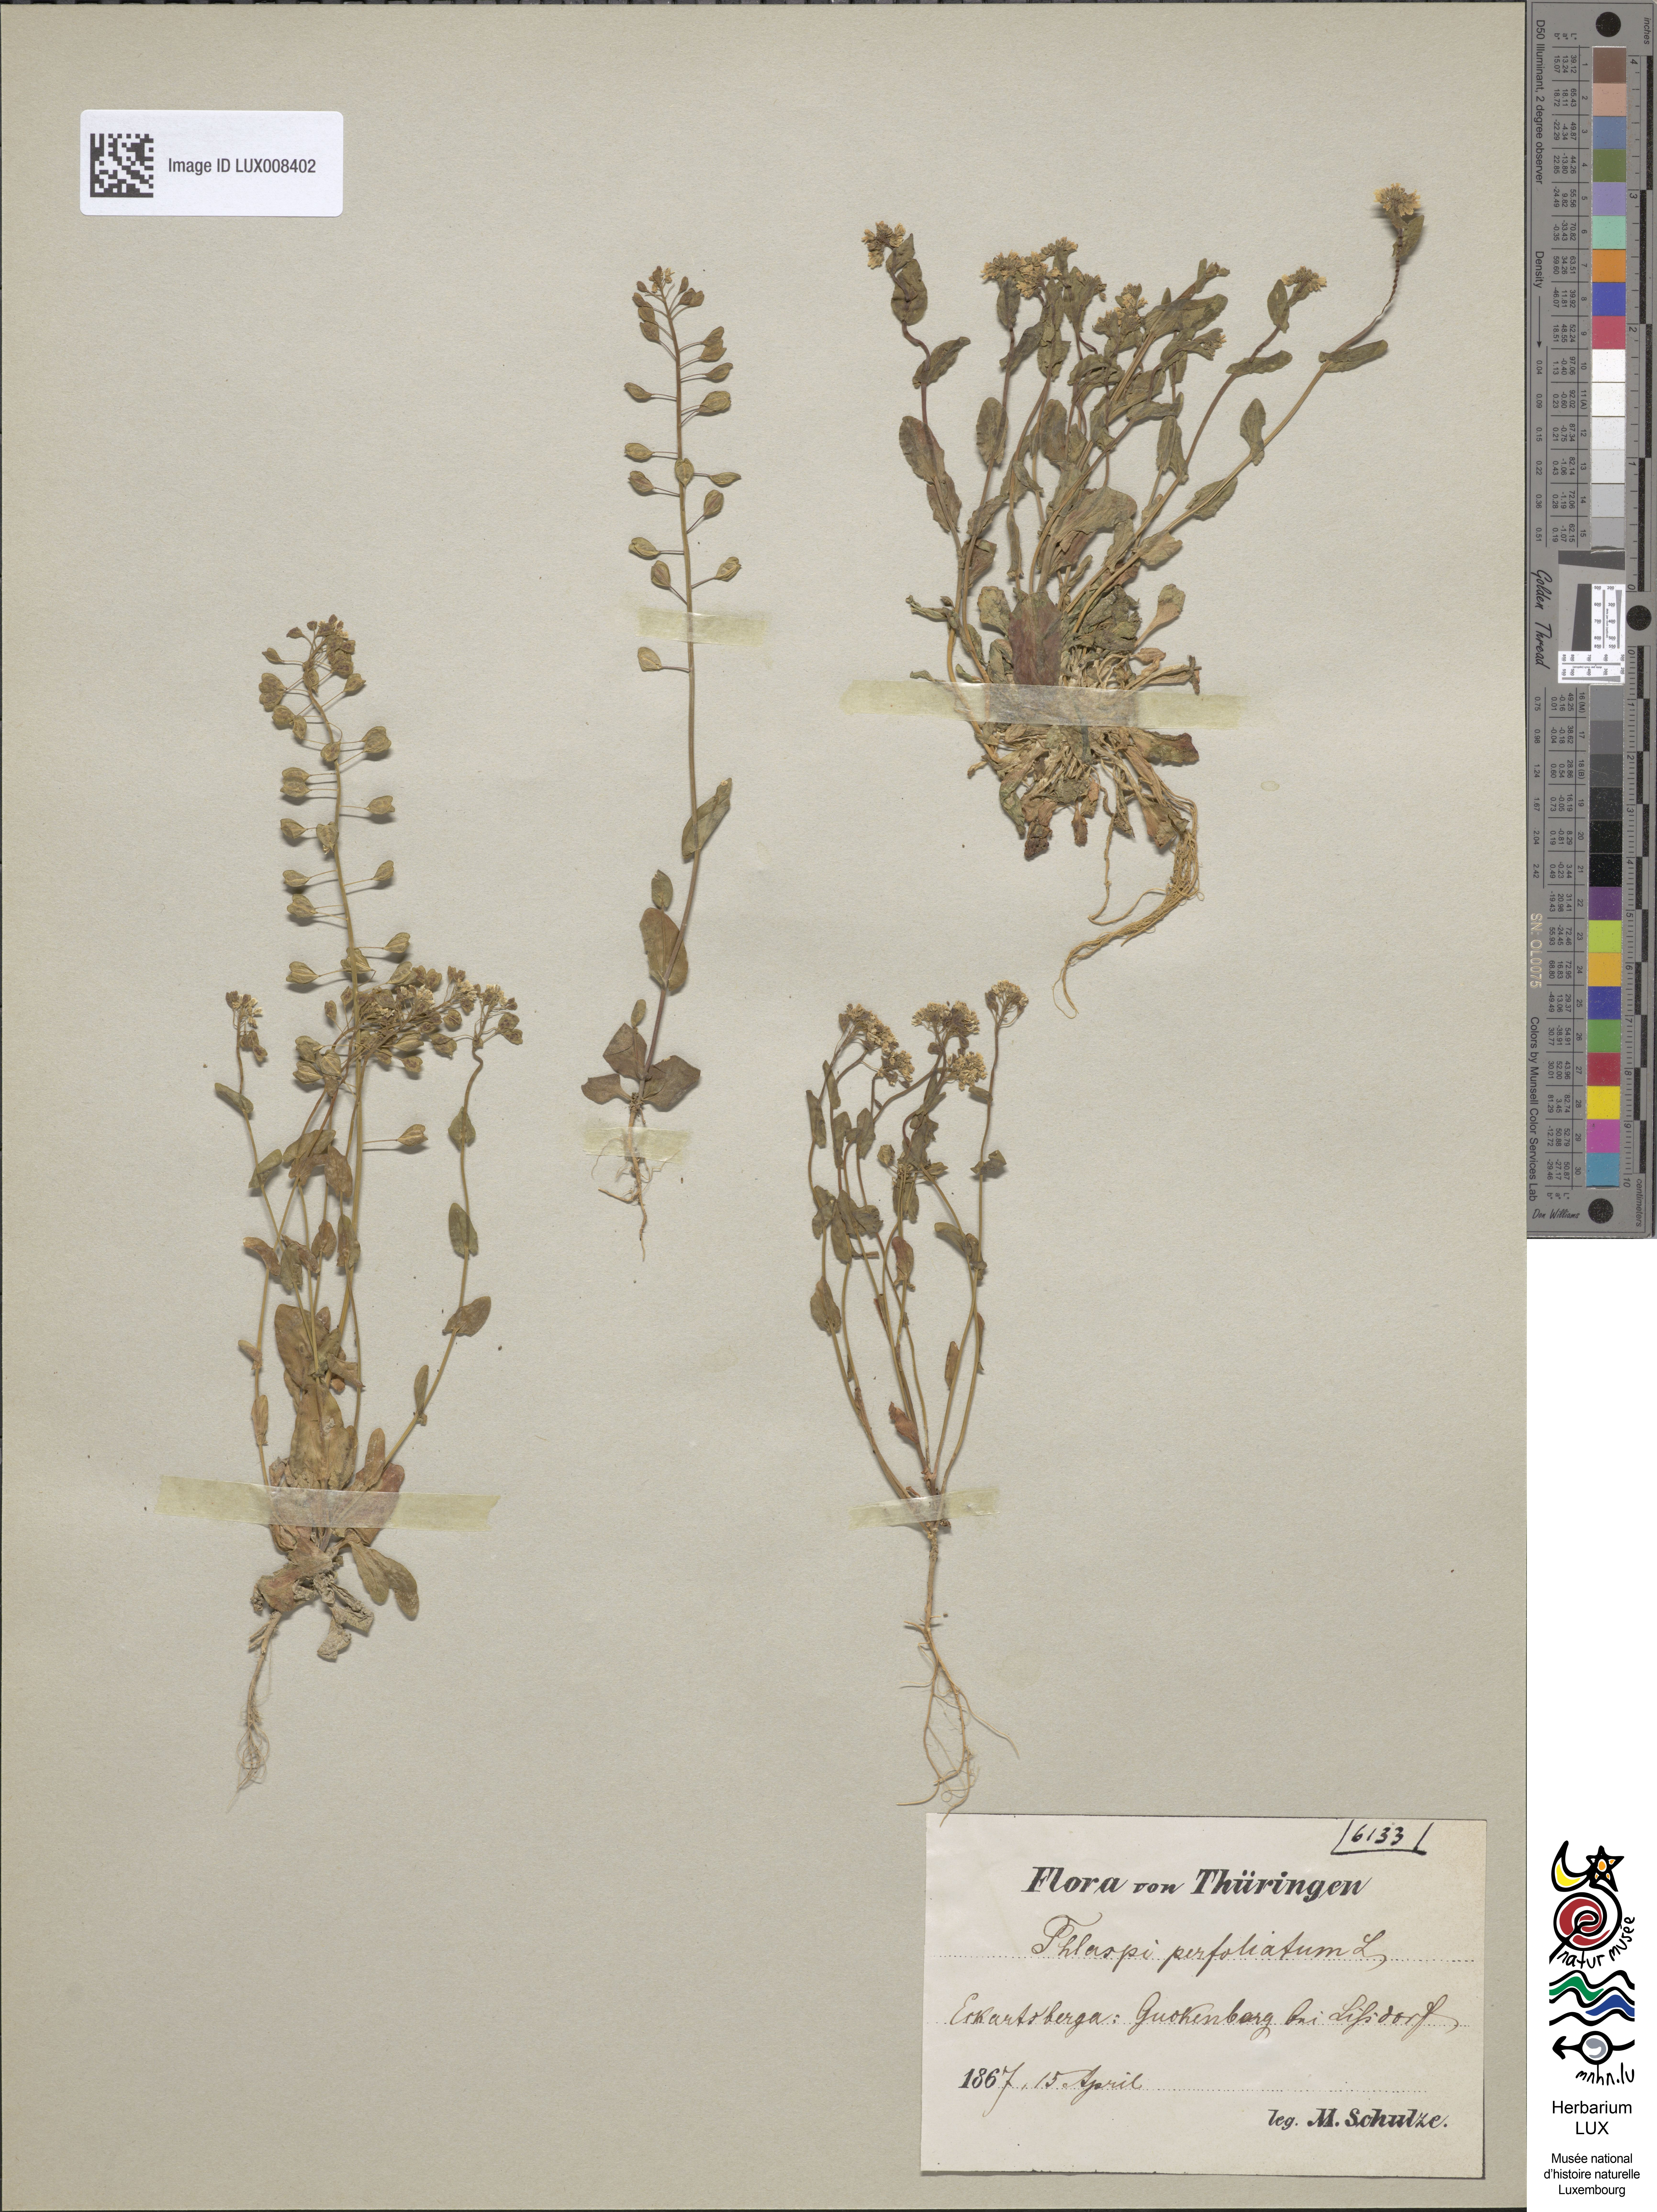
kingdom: Plantae
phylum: Tracheophyta
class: Magnoliopsida
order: Brassicales
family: Brassicaceae
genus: Noccaea
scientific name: Noccaea perfoliata
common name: Perfoliate pennycress
